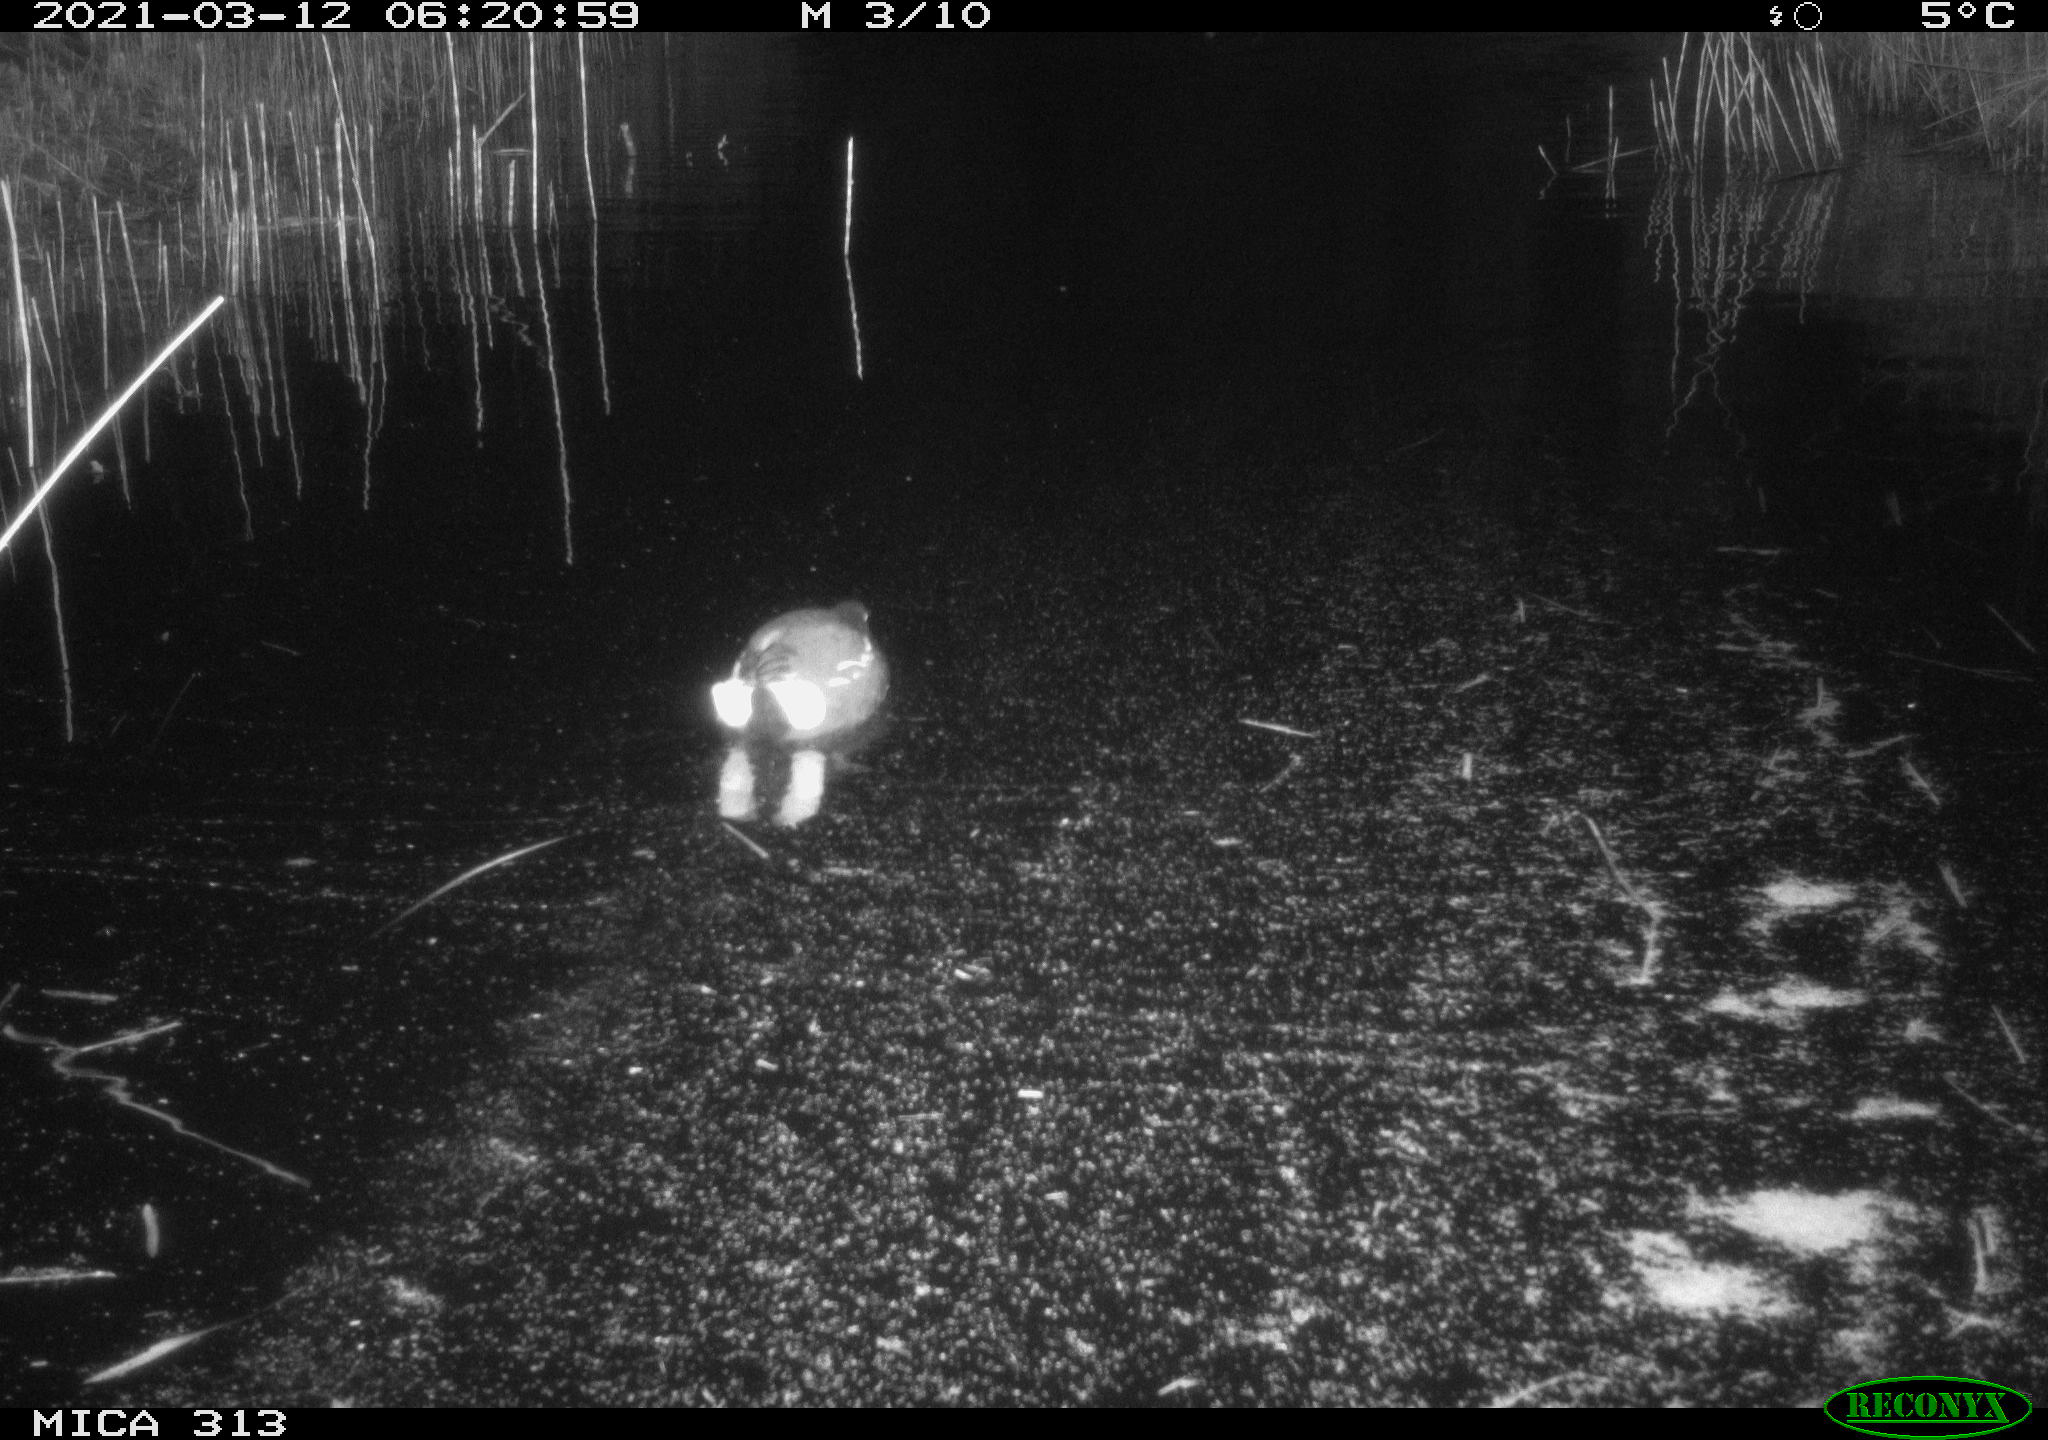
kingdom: Animalia
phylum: Chordata
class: Aves
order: Gruiformes
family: Rallidae
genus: Gallinula
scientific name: Gallinula chloropus
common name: Common moorhen
